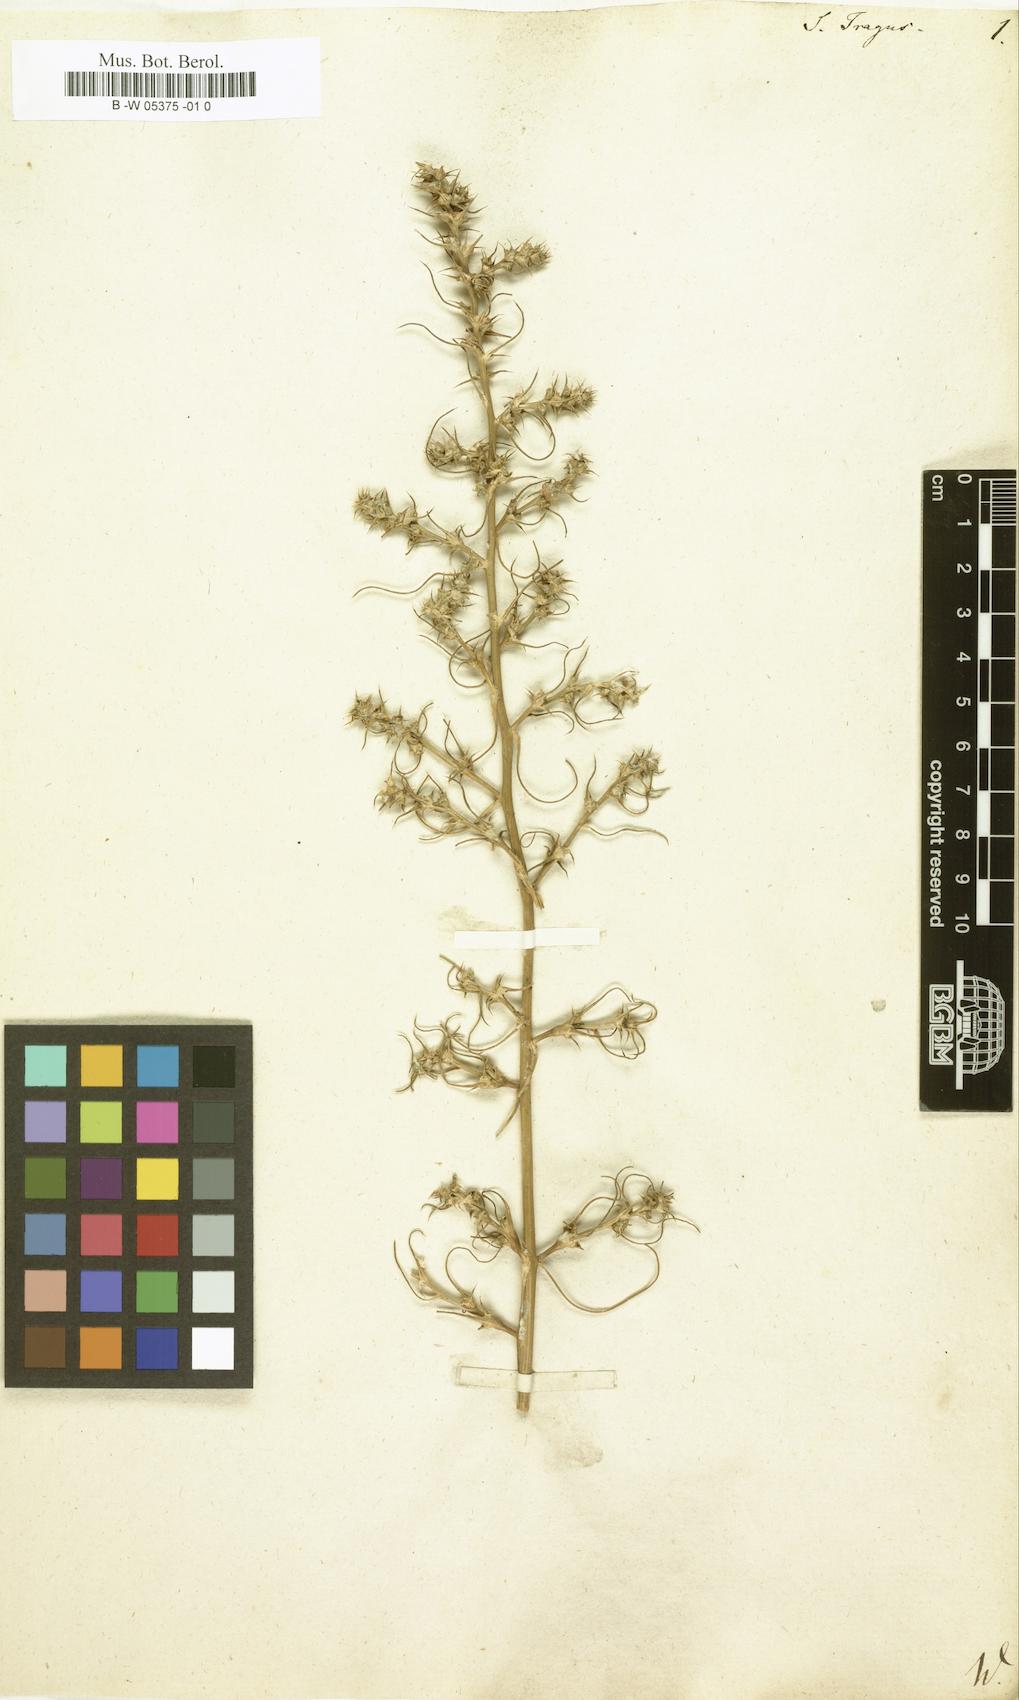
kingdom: Plantae
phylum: Tracheophyta
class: Magnoliopsida
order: Caryophyllales
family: Amaranthaceae
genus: Salsola
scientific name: Salsola tragus
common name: Prickly russian thistle
